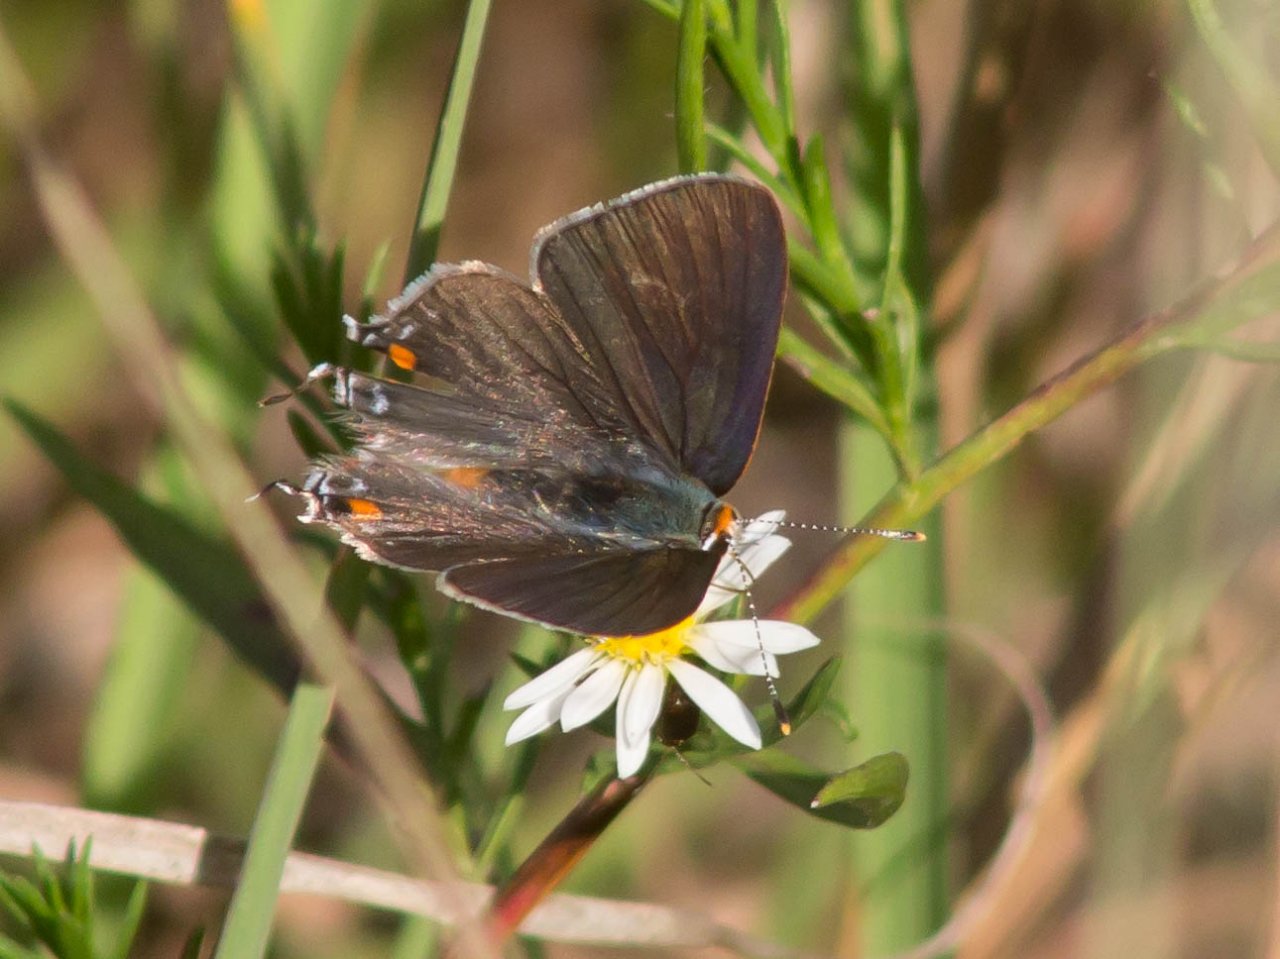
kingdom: Animalia
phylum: Arthropoda
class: Insecta
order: Lepidoptera
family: Lycaenidae
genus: Strymon
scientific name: Strymon melinus
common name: Gray Hairstreak
